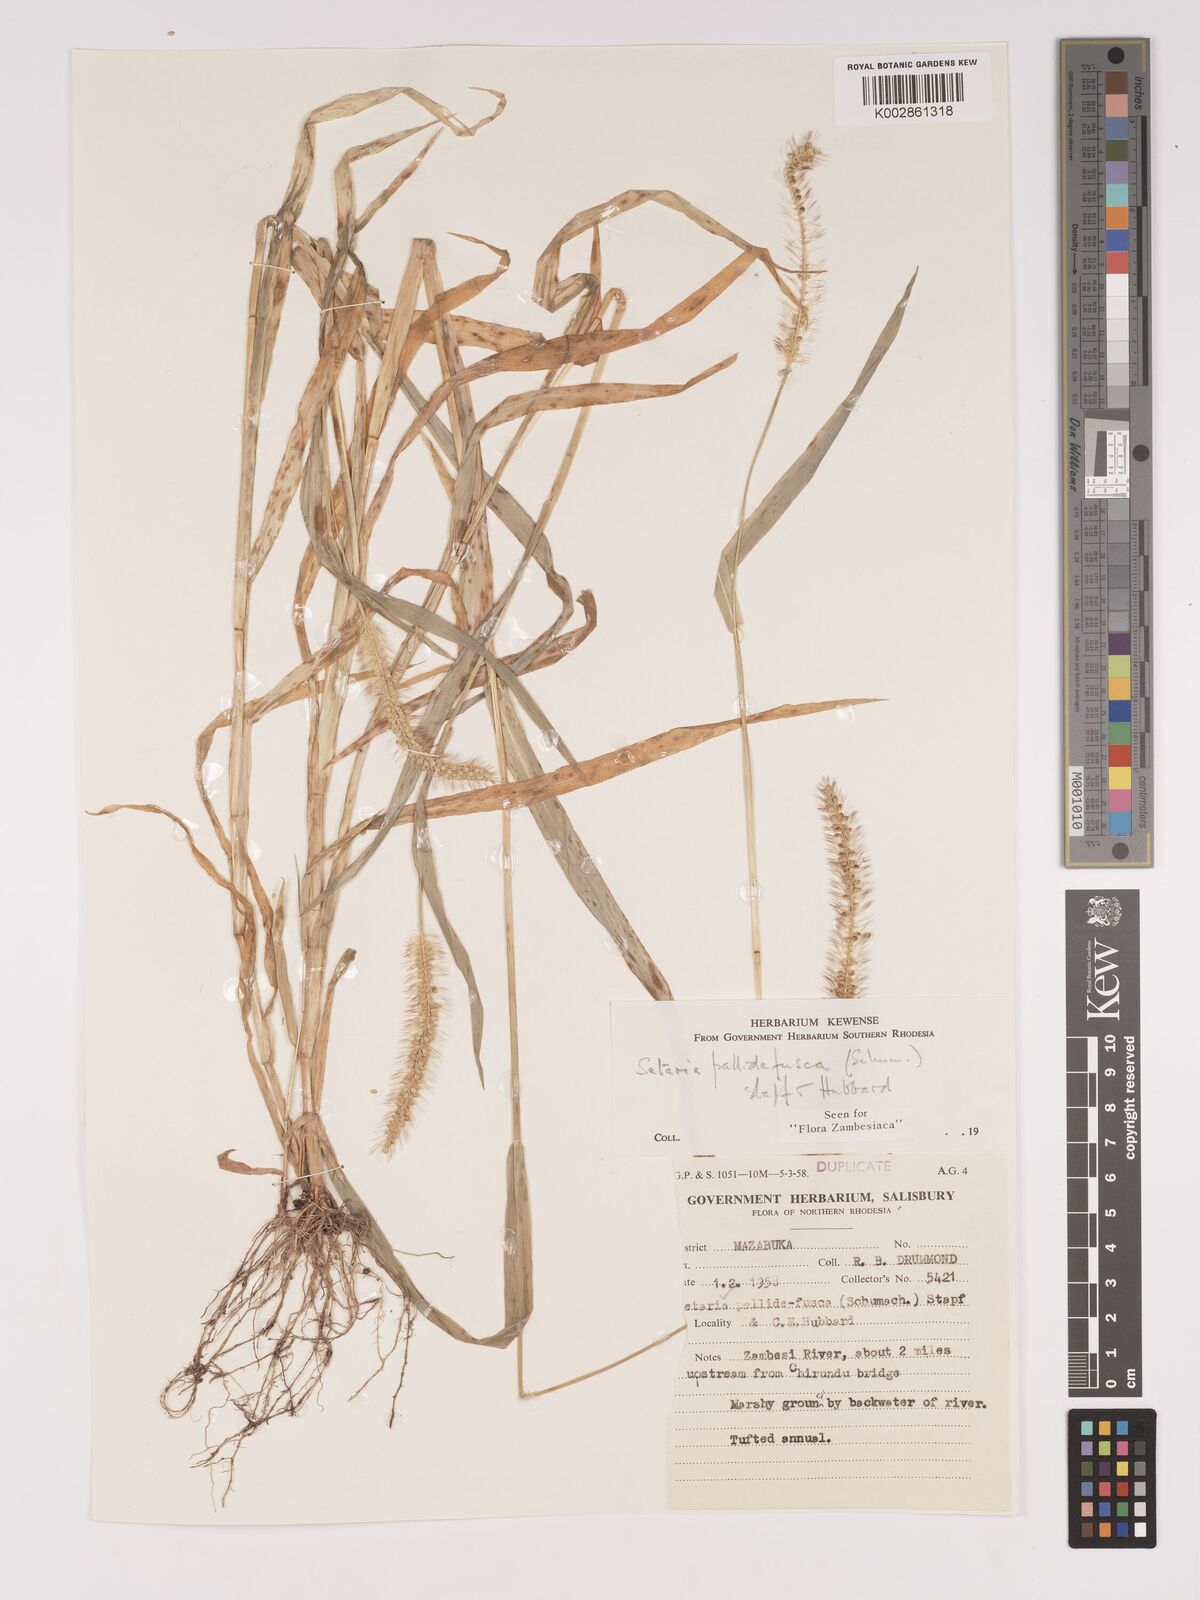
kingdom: Plantae
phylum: Tracheophyta
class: Liliopsida
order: Poales
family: Poaceae
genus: Setaria
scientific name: Setaria pumila
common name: Yellow bristle-grass
